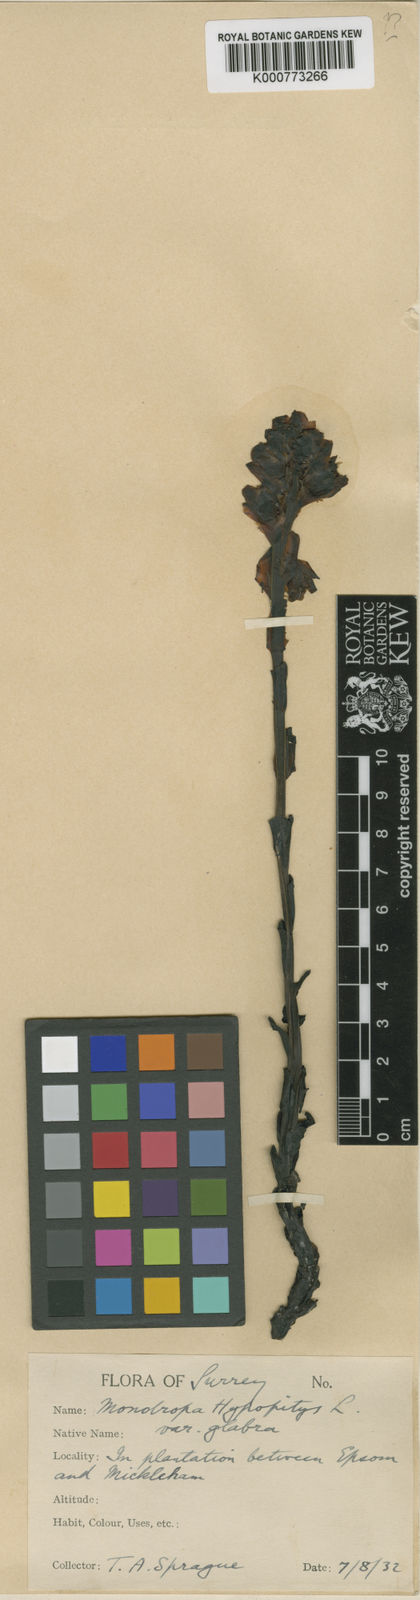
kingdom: Plantae
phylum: Tracheophyta
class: Magnoliopsida
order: Ericales
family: Ericaceae
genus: Monotropa
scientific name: Monotropa
